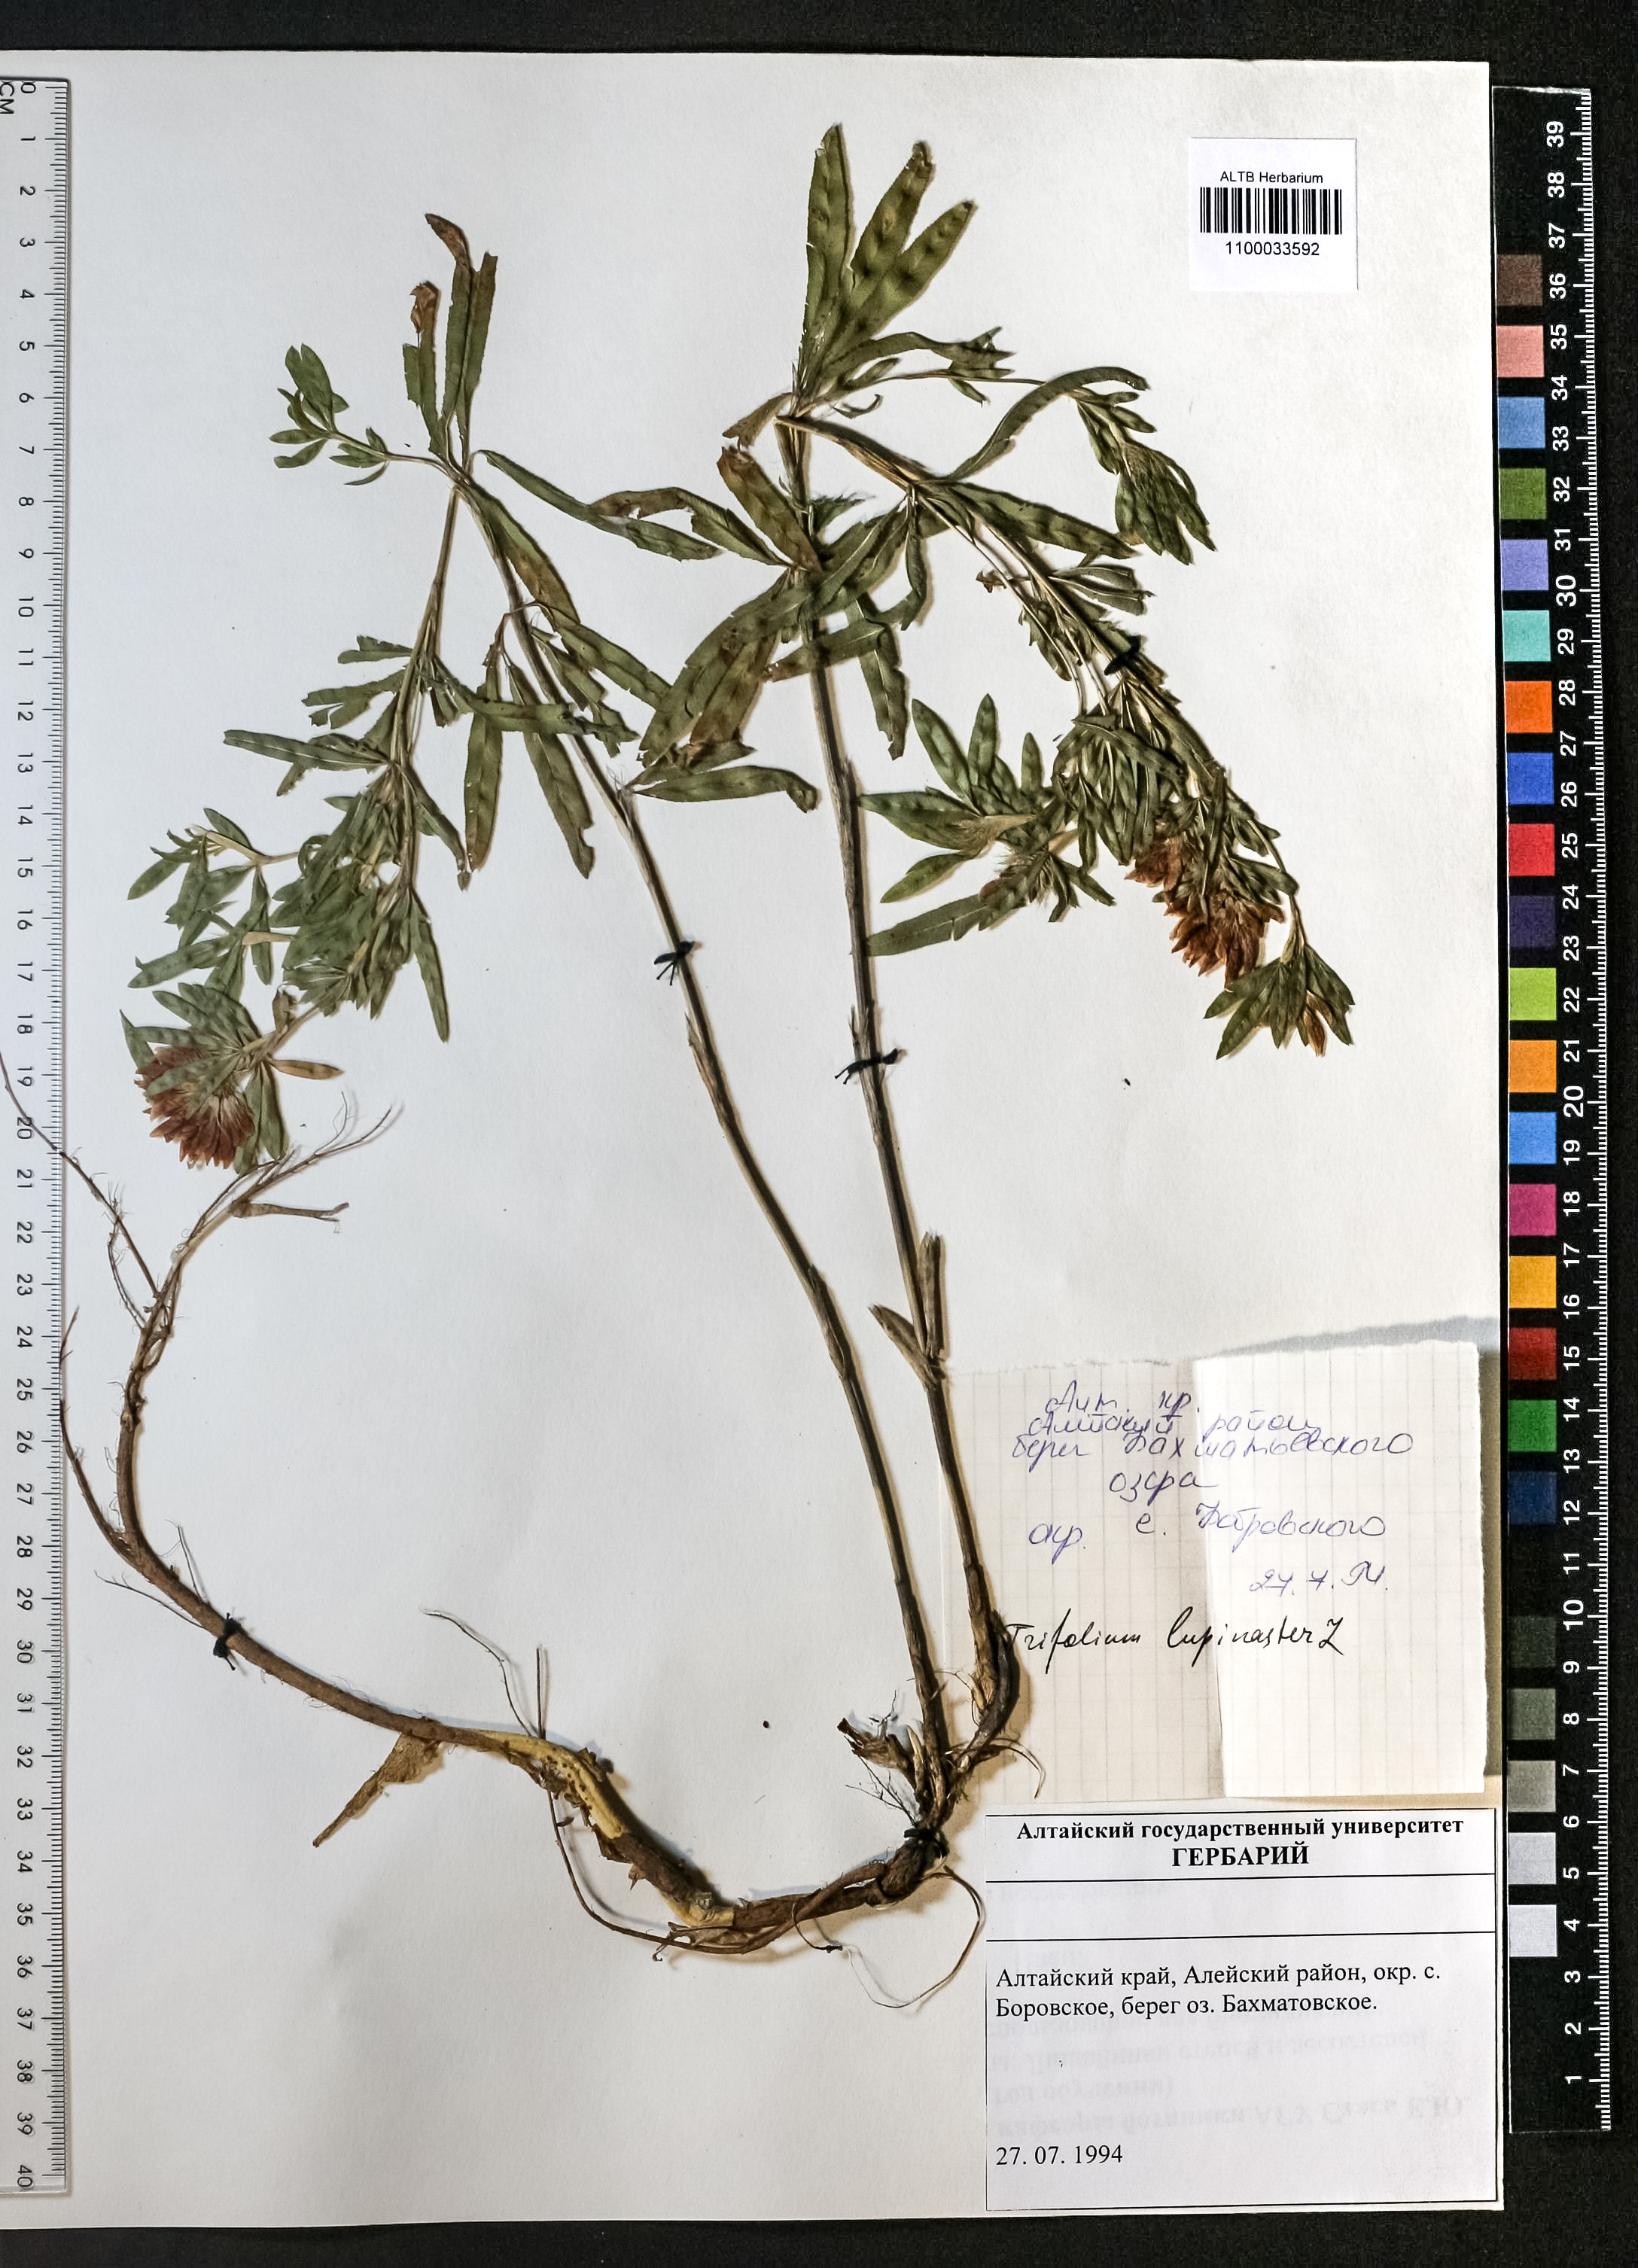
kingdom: Plantae
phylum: Tracheophyta
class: Magnoliopsida
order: Fabales
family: Fabaceae
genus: Trifolium
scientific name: Trifolium lupinaster
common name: Lupine clover
